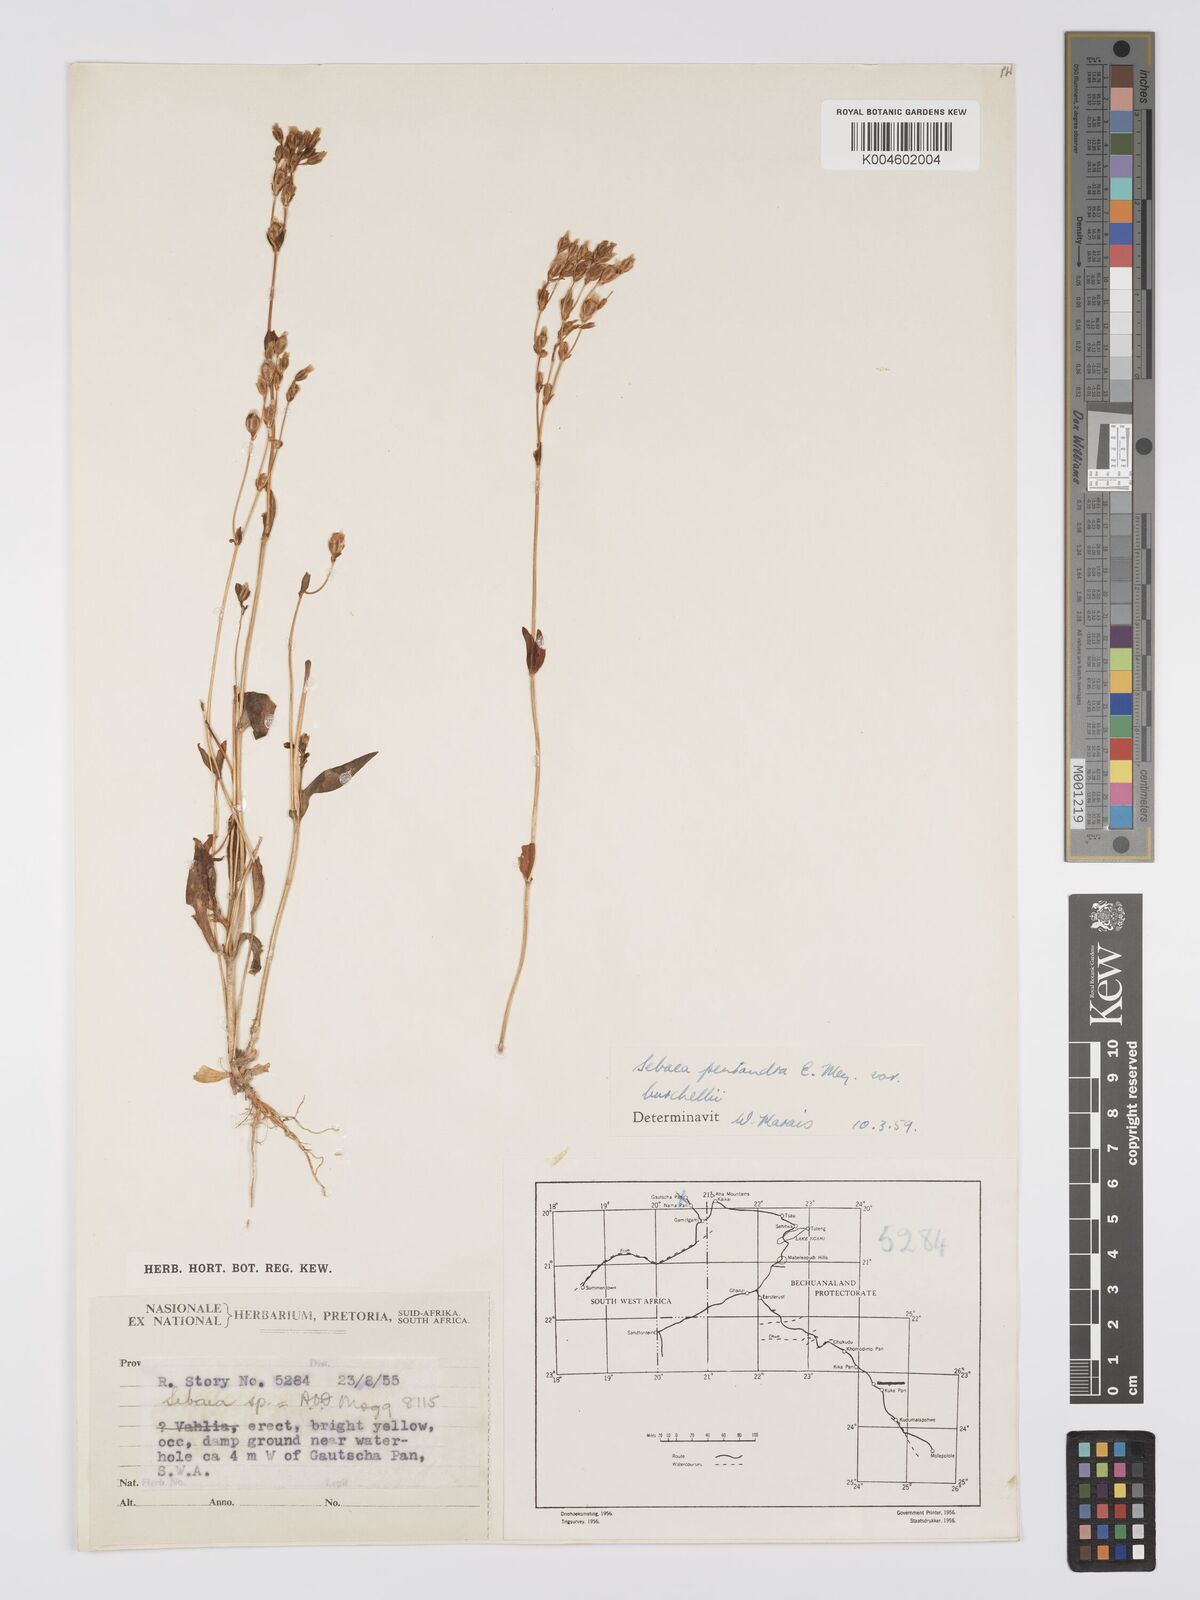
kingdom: Plantae
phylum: Tracheophyta
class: Magnoliopsida
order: Gentianales
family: Gentianaceae
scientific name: Gentianaceae
